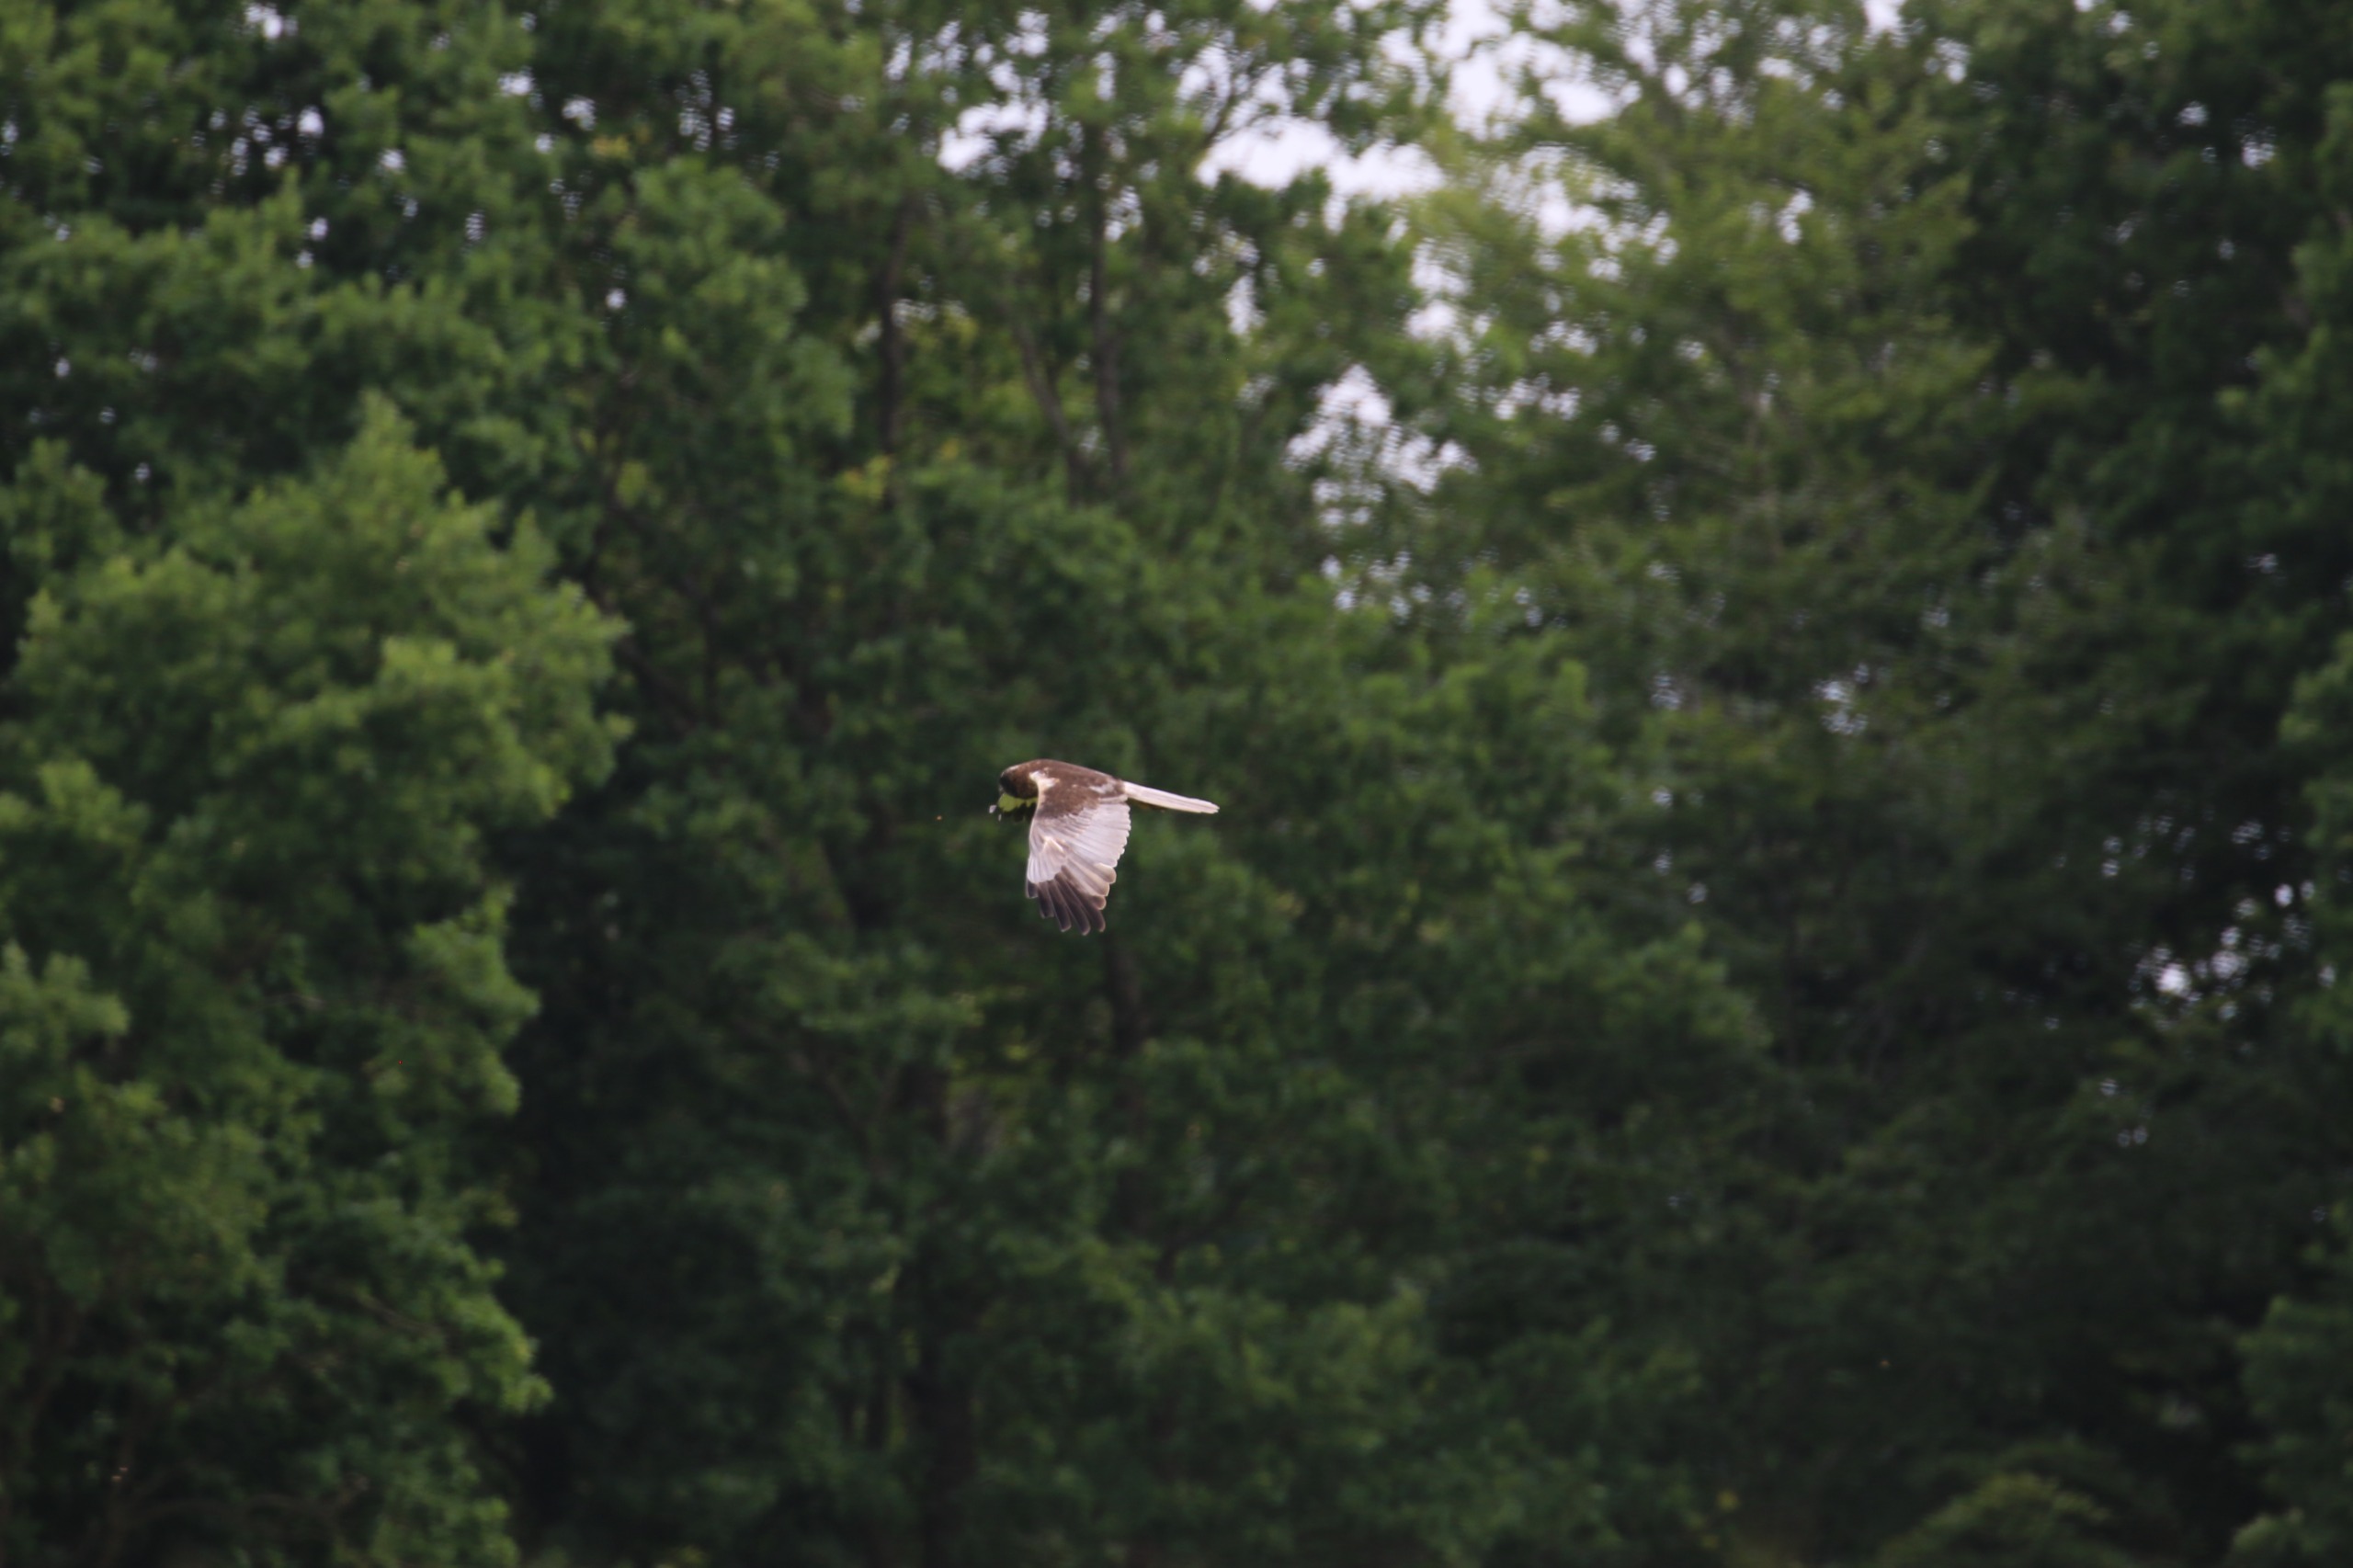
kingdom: Animalia
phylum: Chordata
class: Aves
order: Accipitriformes
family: Accipitridae
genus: Circus
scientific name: Circus aeruginosus
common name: Rørhøg
